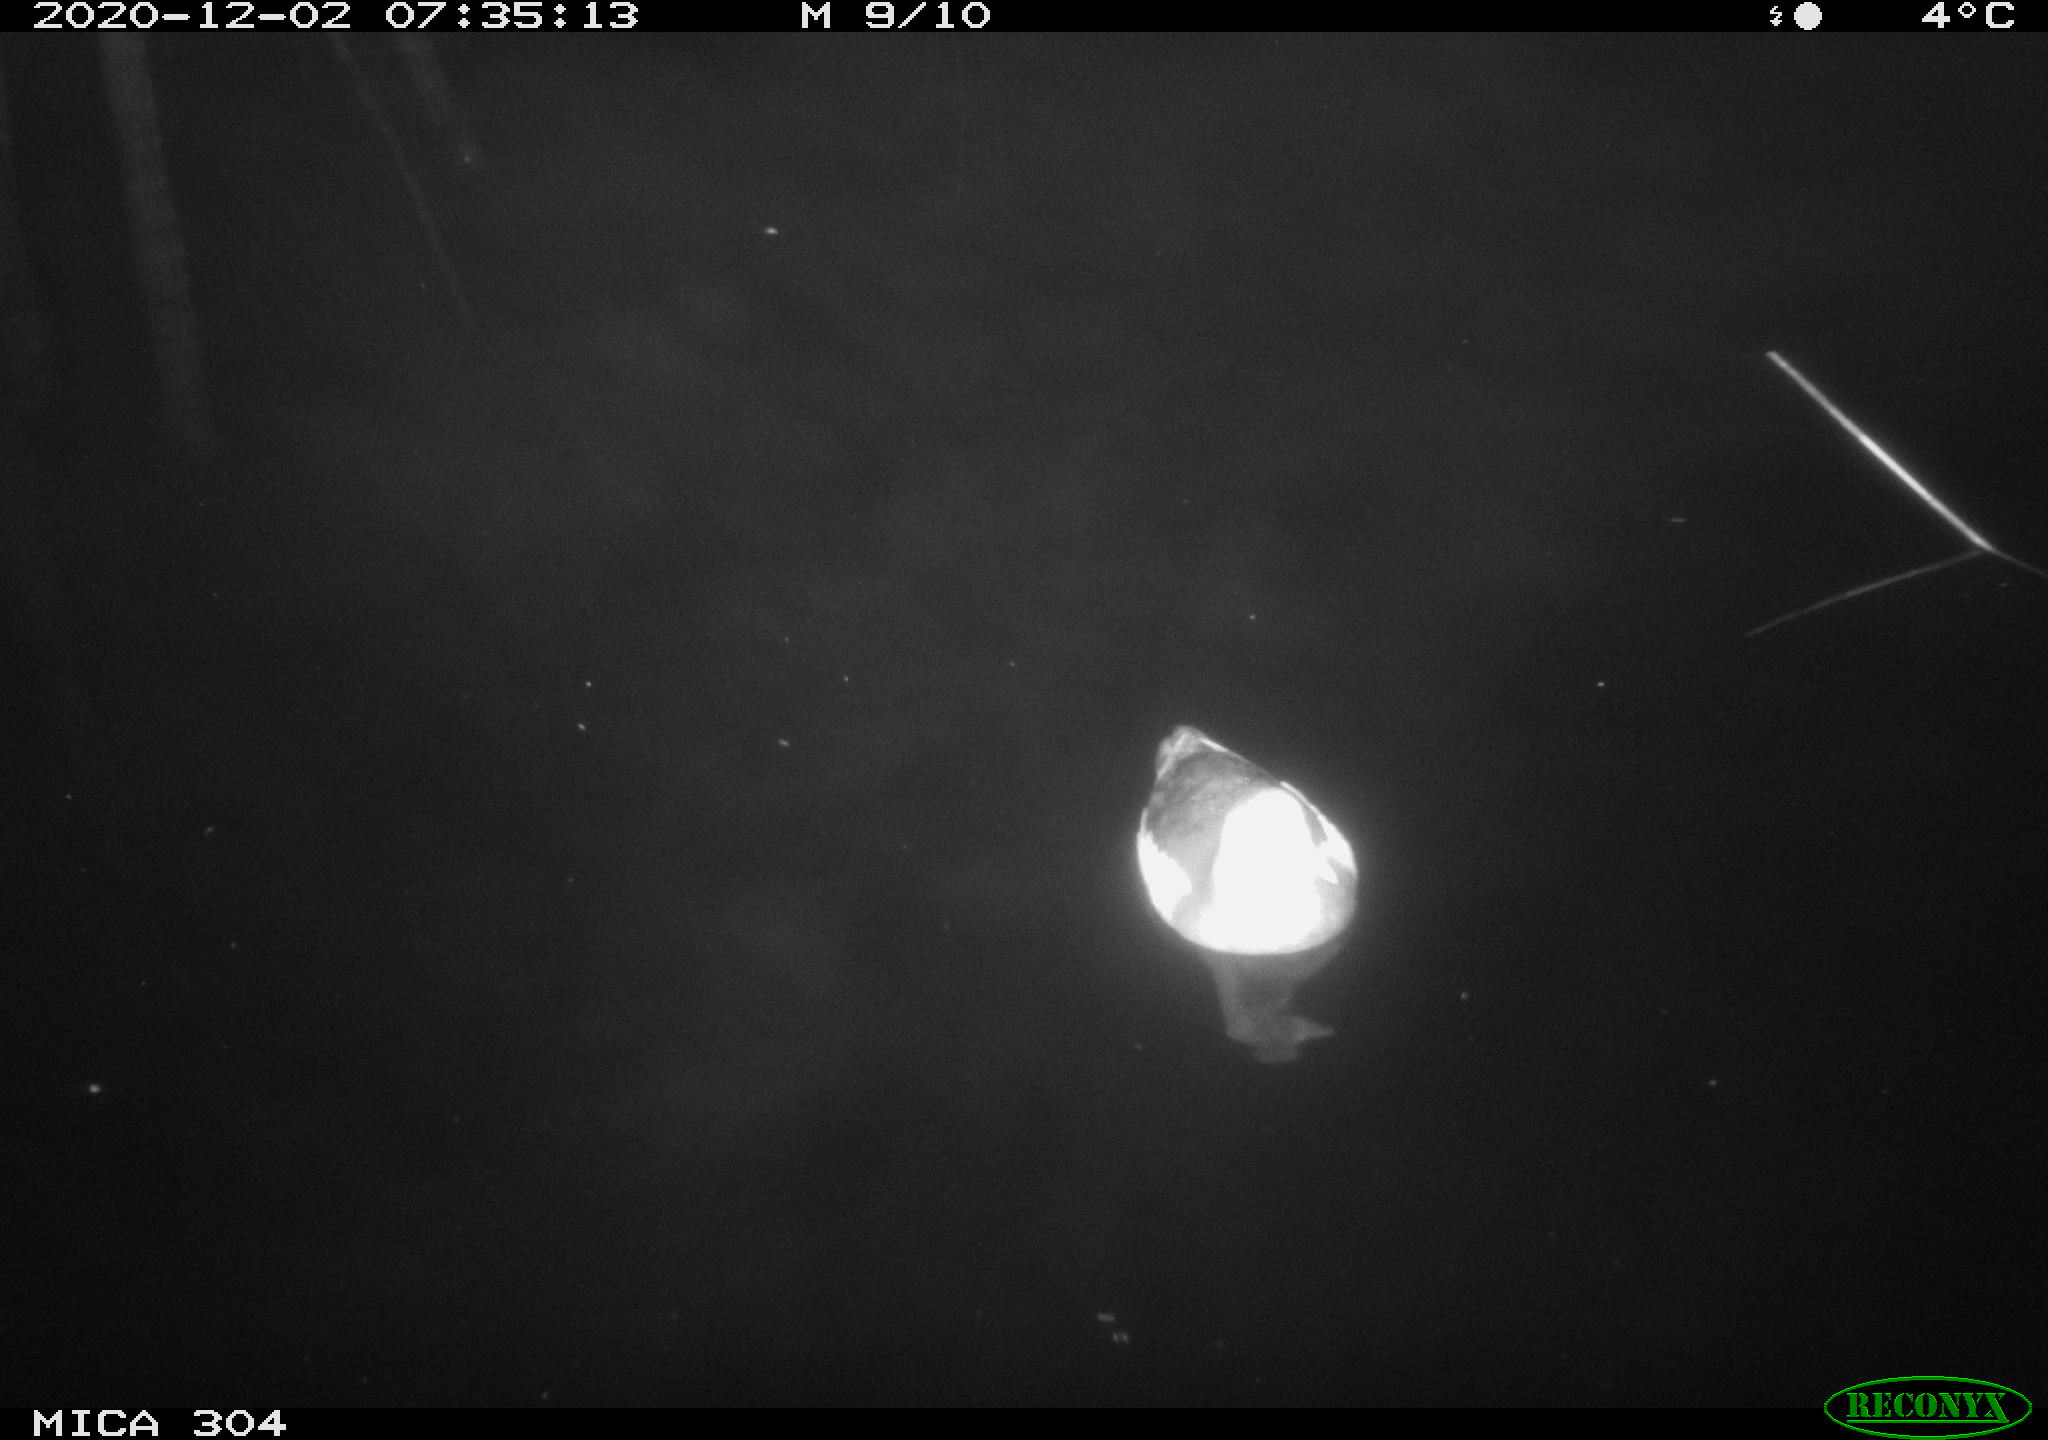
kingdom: Animalia
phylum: Chordata
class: Aves
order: Gruiformes
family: Rallidae
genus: Gallinula
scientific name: Gallinula chloropus
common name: Common moorhen
